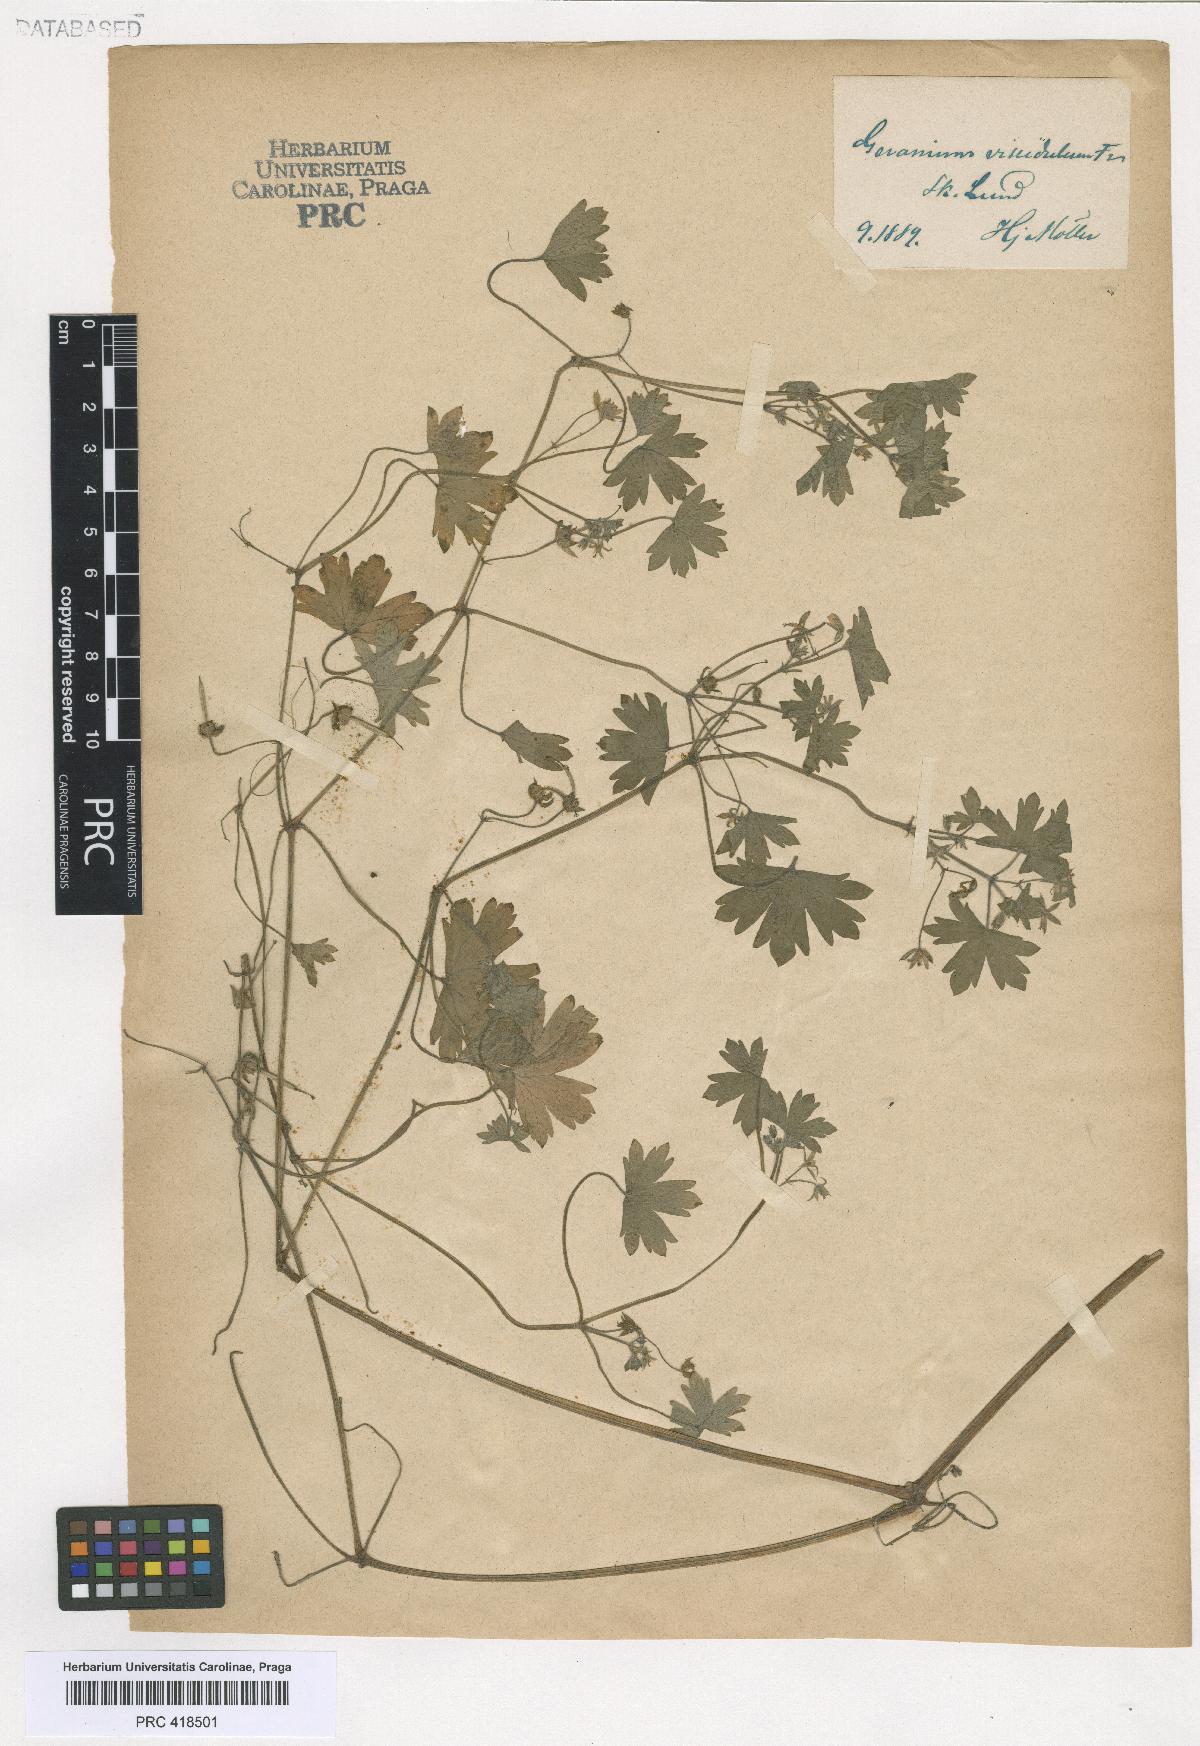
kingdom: Plantae
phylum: Tracheophyta
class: Magnoliopsida
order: Geraniales
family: Geraniaceae
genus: Geranium
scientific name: Geranium rotundifolium
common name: Round-leaved crane's-bill
